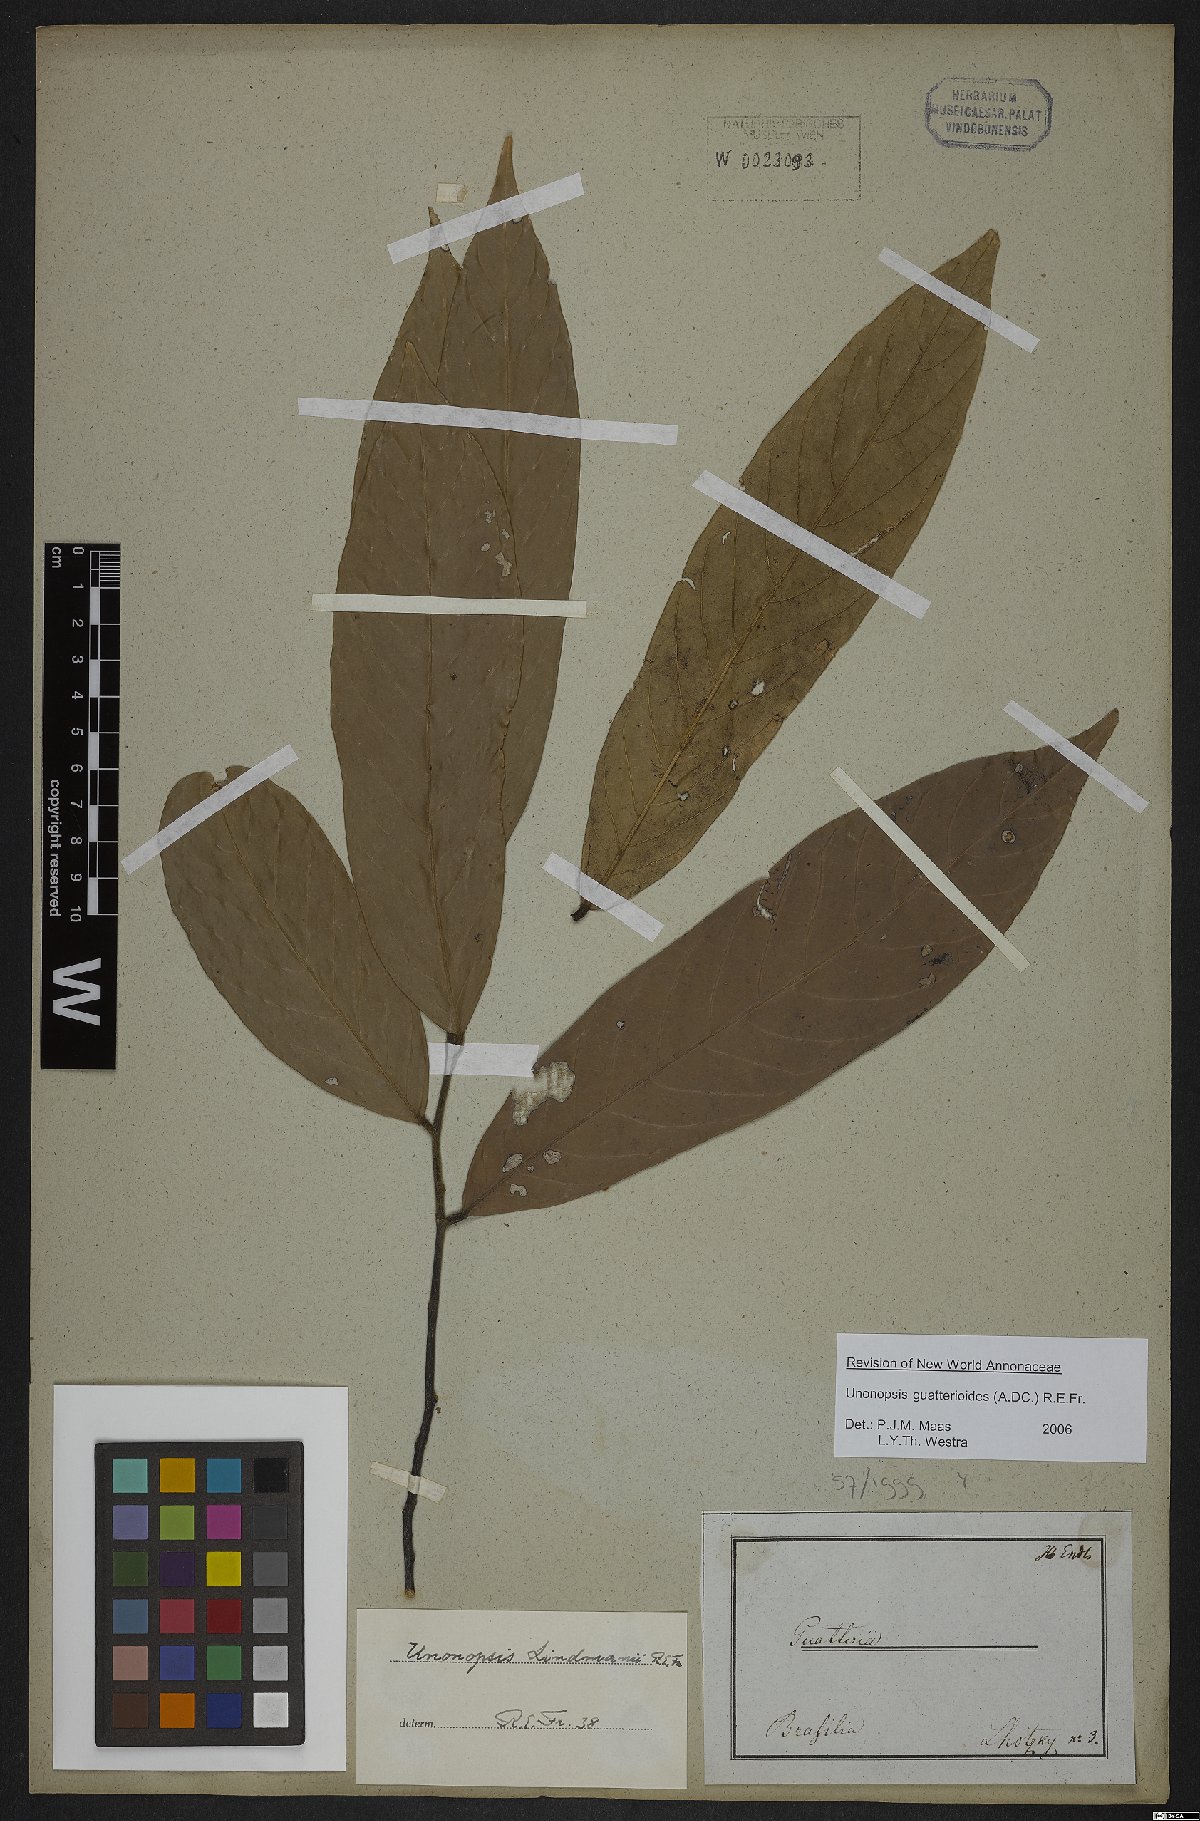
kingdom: Plantae
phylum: Tracheophyta
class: Magnoliopsida
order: Magnoliales
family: Annonaceae
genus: Unonopsis
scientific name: Unonopsis guatterioides
